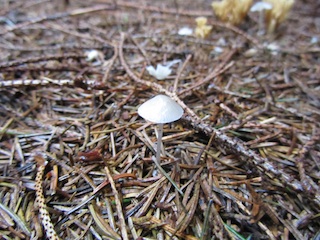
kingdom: Fungi
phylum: Basidiomycota
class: Agaricomycetes
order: Agaricales
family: Mycenaceae
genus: Mycena
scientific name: Mycena stylobates
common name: fureskivet huesvamp
